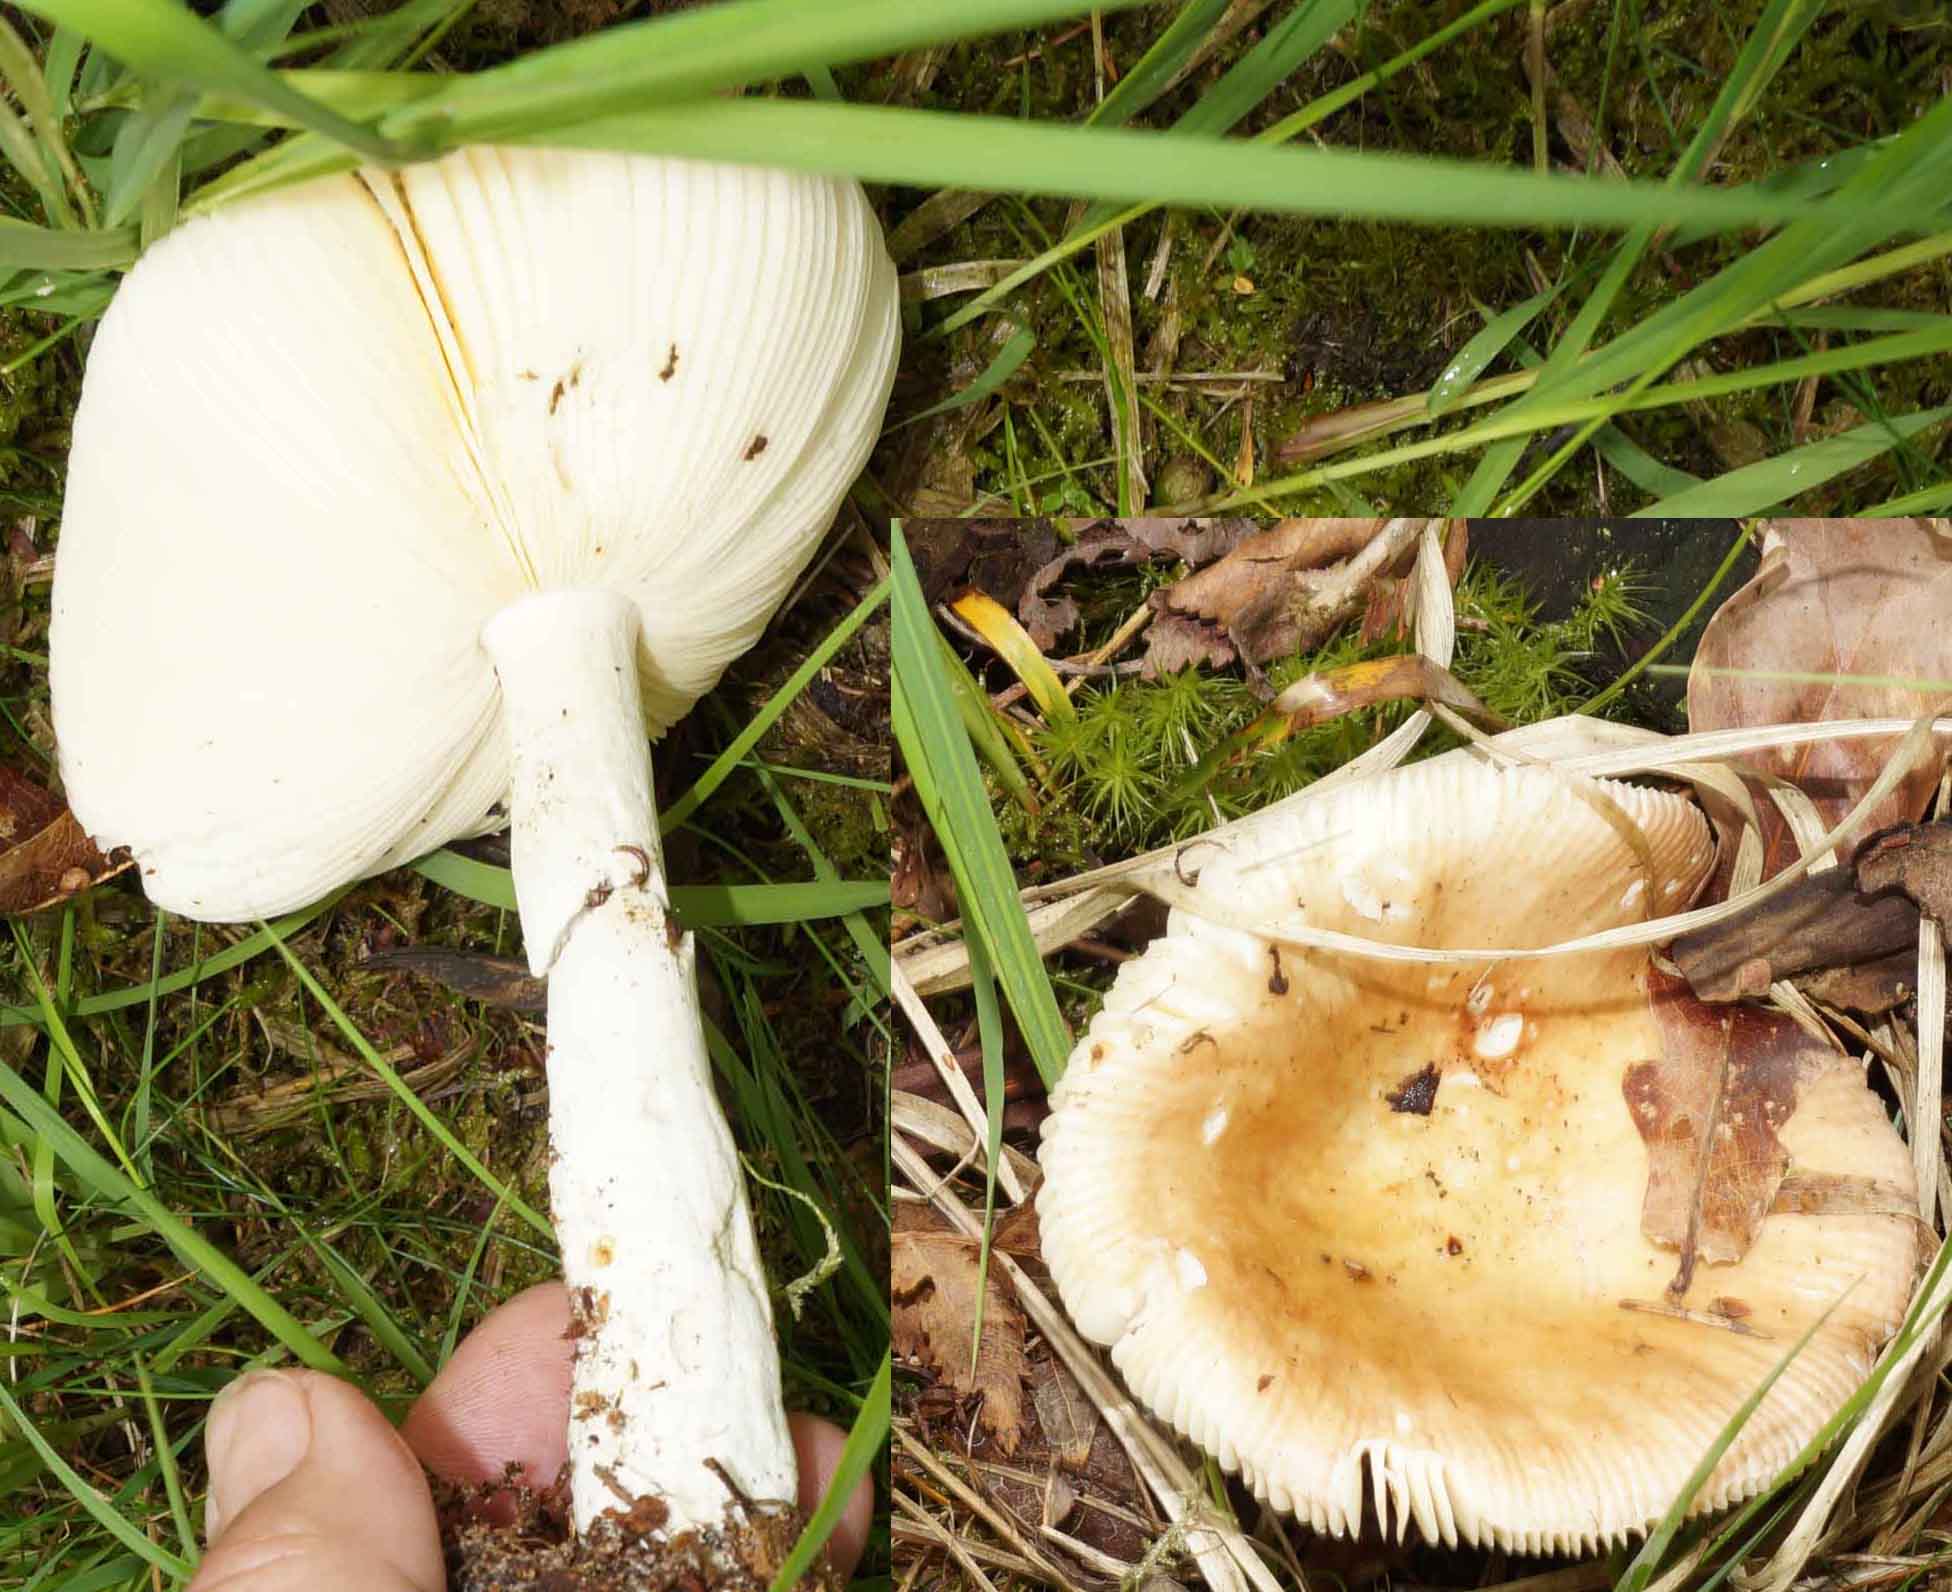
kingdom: Fungi
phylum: Basidiomycota
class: Agaricomycetes
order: Russulales
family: Russulaceae
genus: Russula
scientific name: Russula
